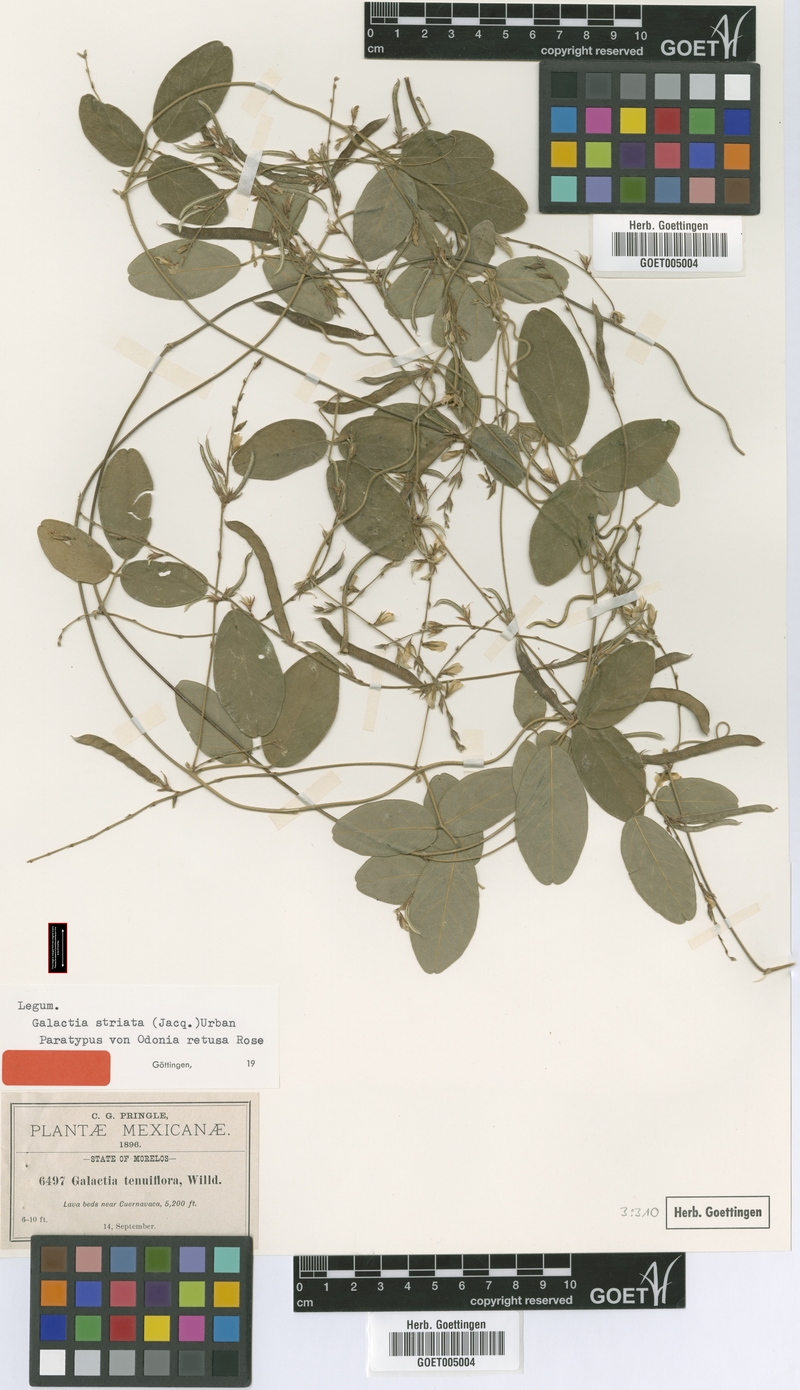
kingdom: Plantae
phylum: Tracheophyta
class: Magnoliopsida
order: Fabales
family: Fabaceae
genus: Galactia
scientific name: Galactia striata
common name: Florida hammock milkpea
